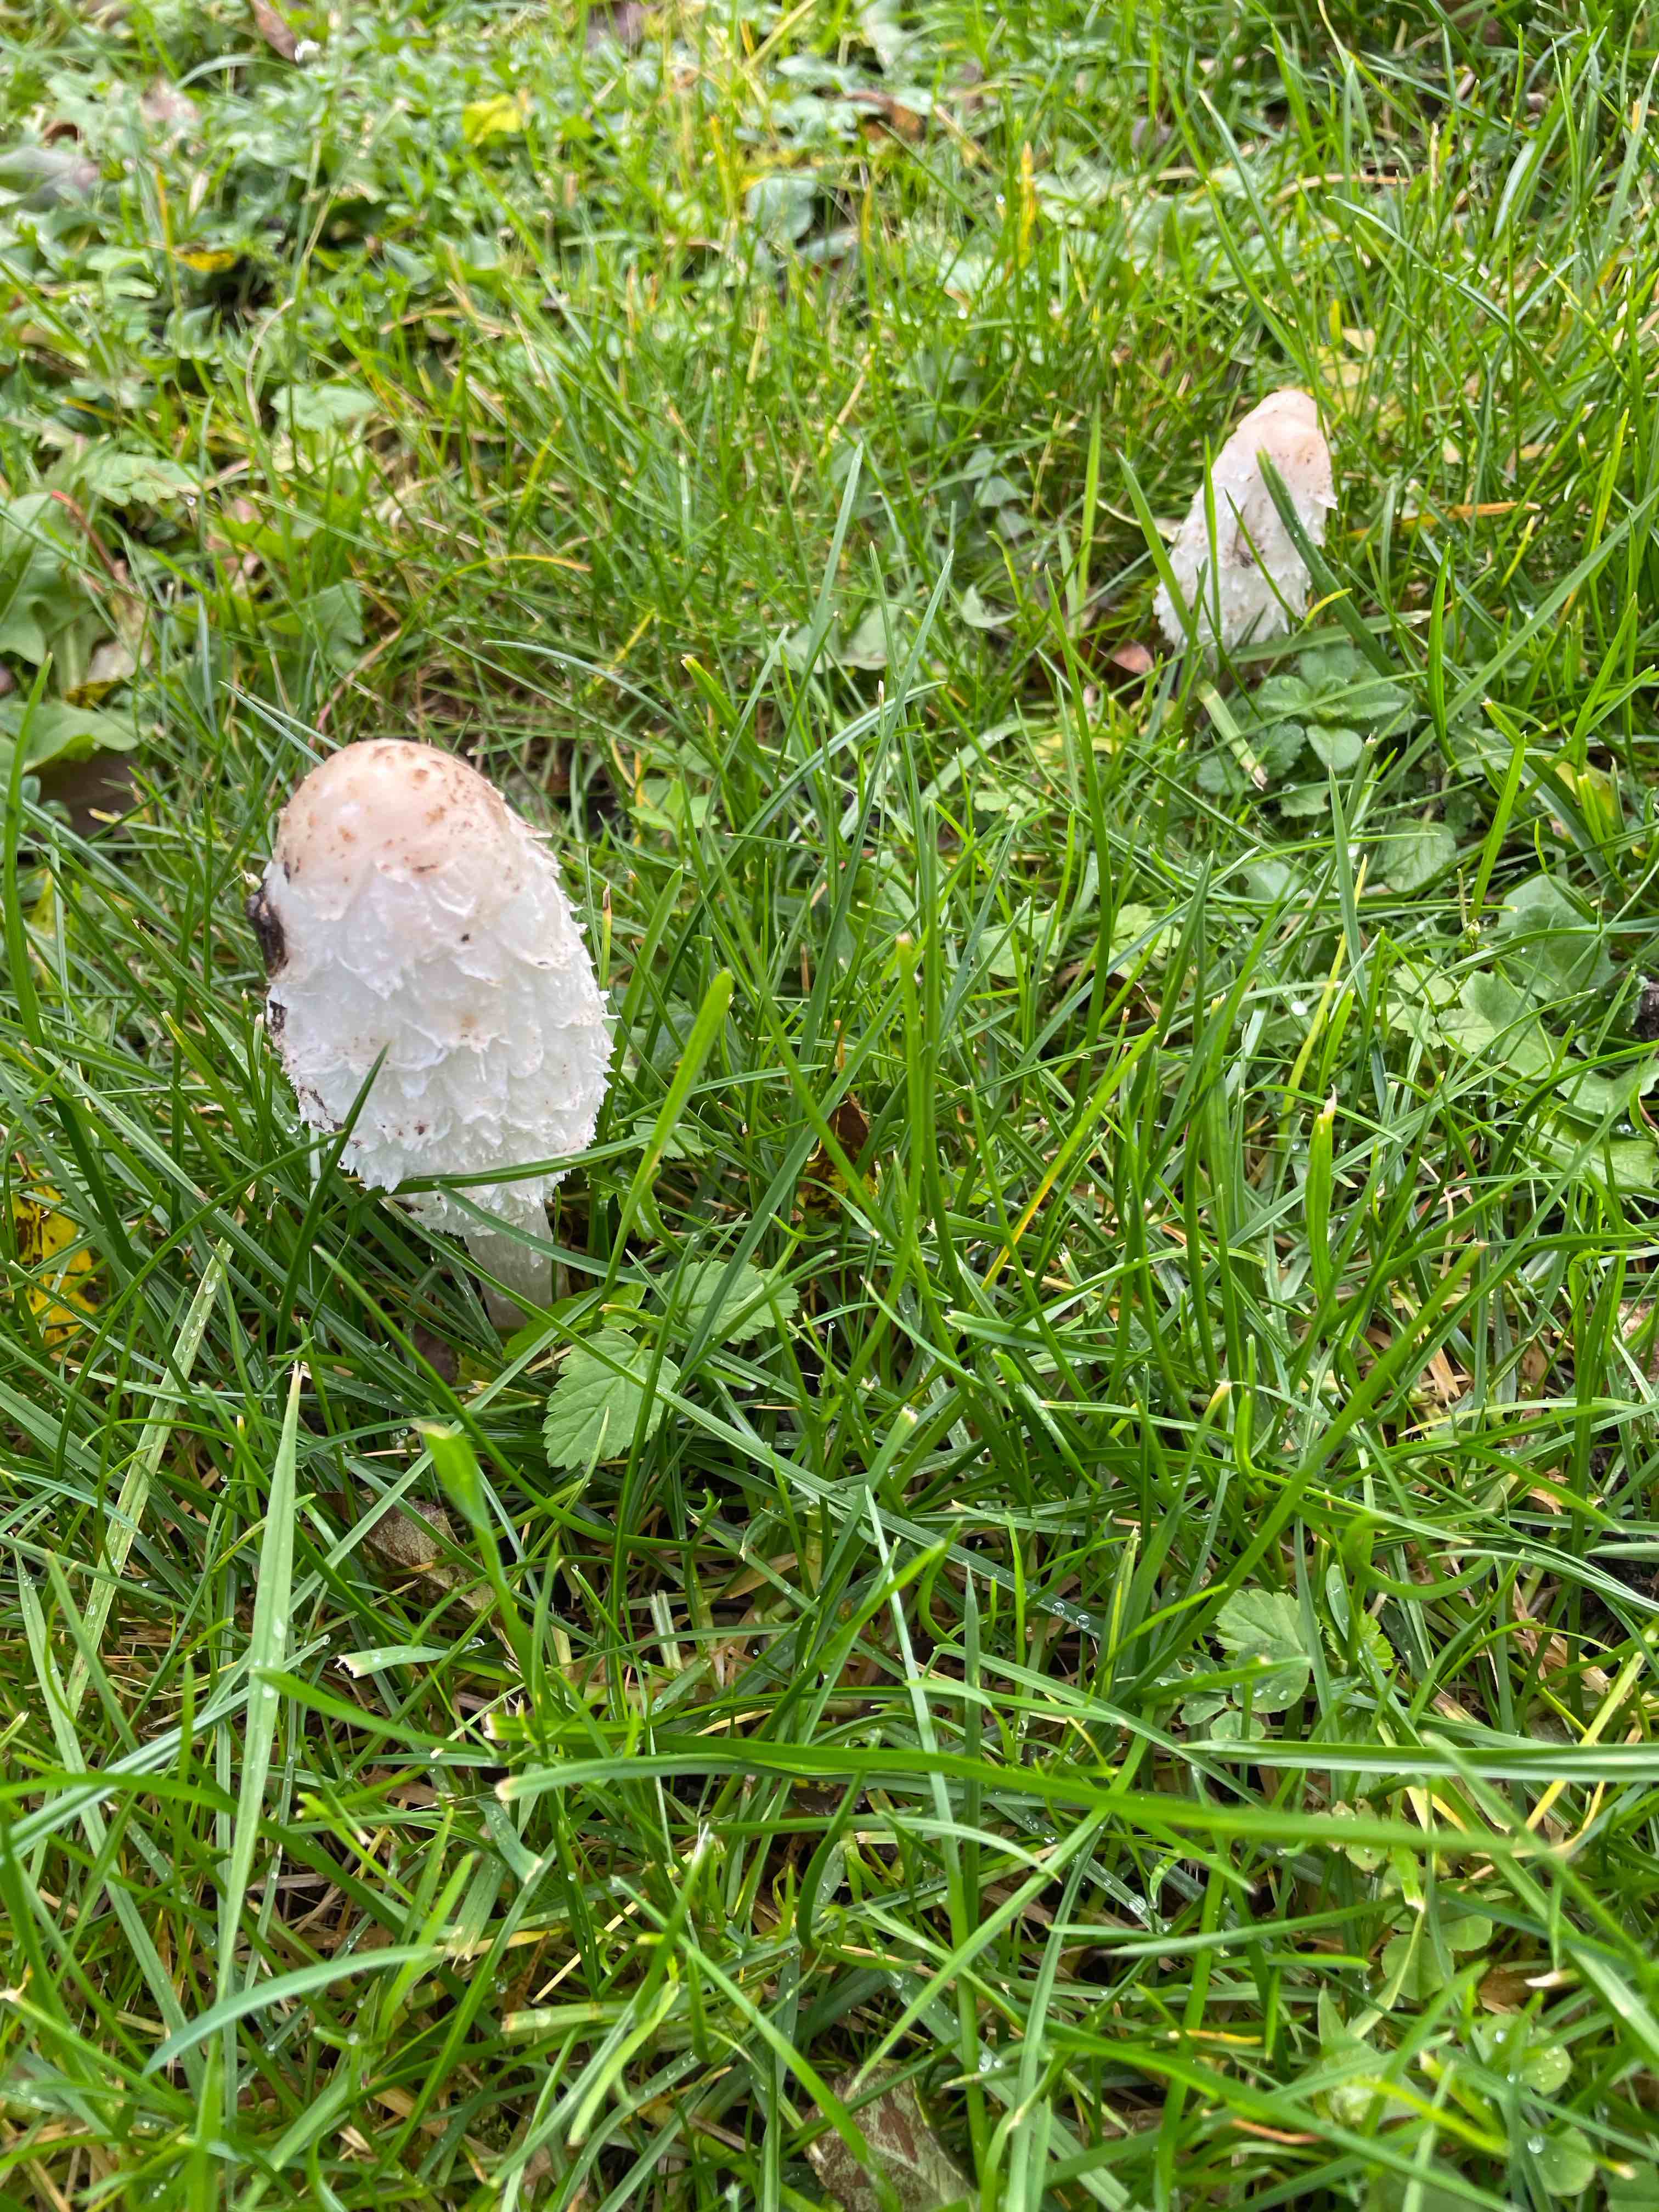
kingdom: Fungi
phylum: Basidiomycota
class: Agaricomycetes
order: Agaricales
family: Agaricaceae
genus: Coprinus
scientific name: Coprinus comatus
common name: stor parykhat
